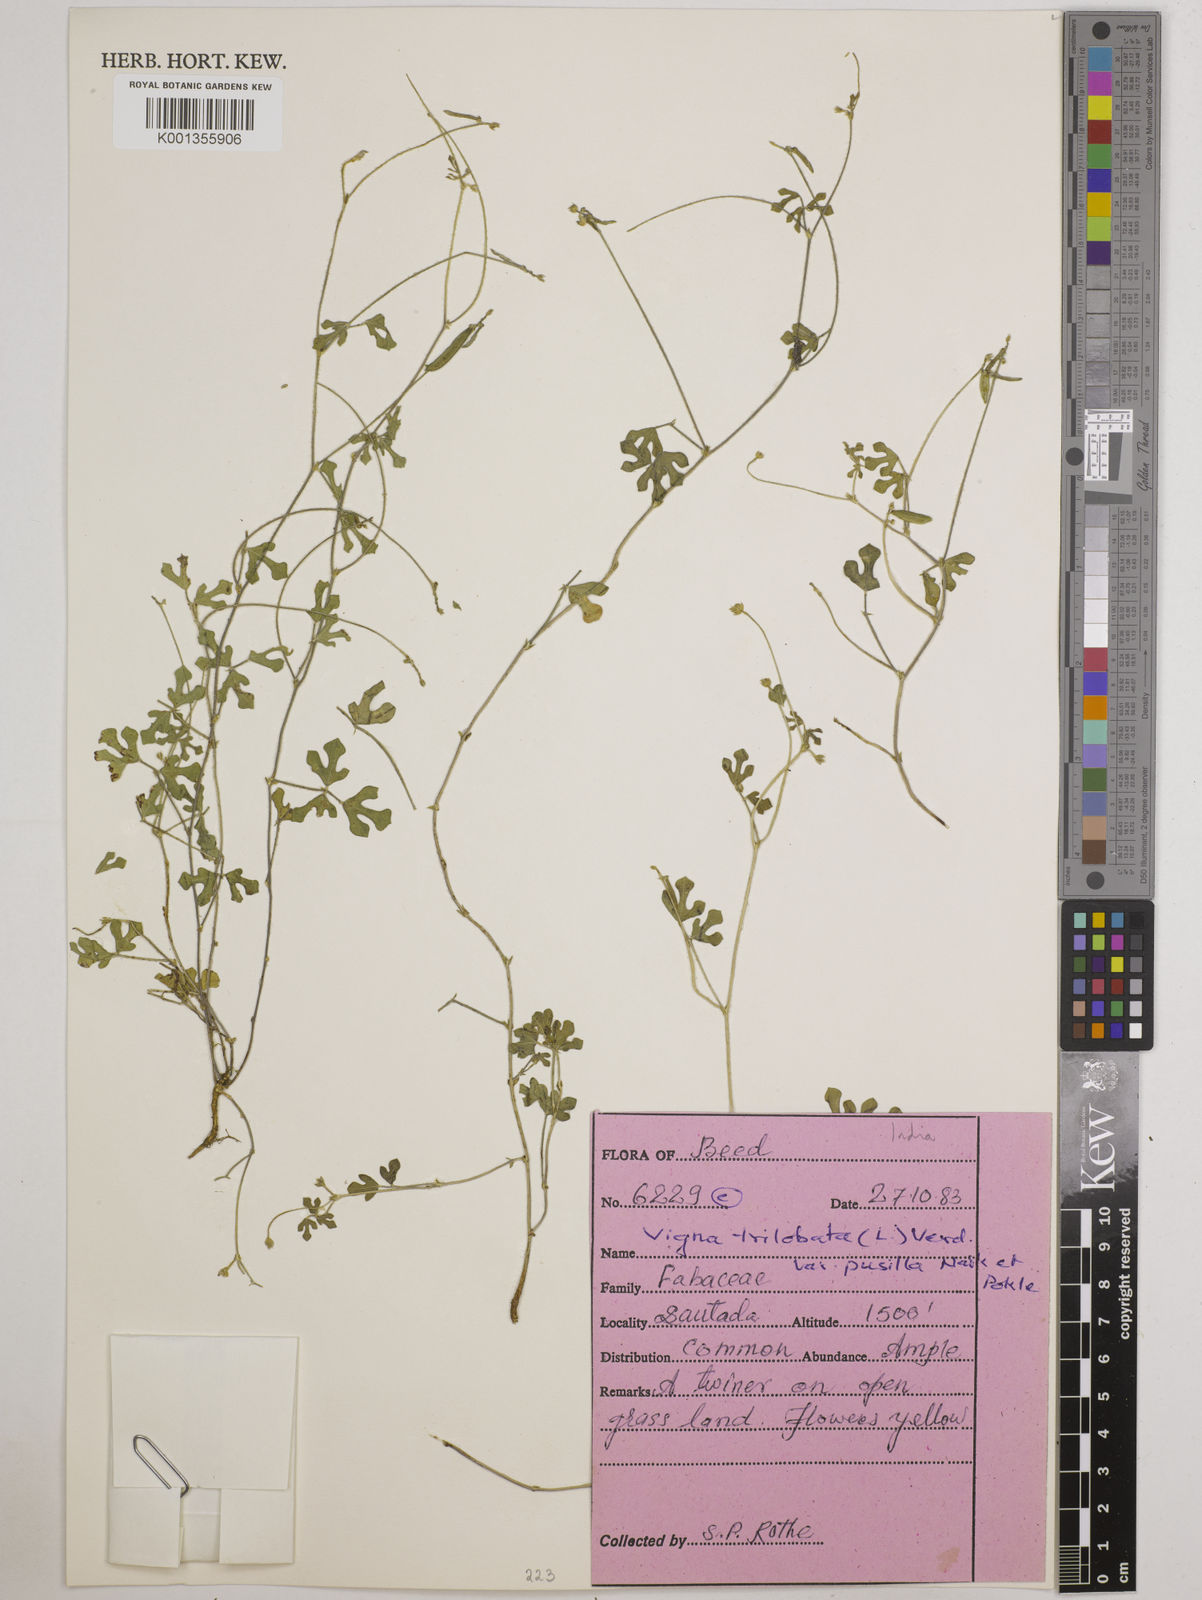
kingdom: Plantae
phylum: Tracheophyta
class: Magnoliopsida
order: Fabales
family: Fabaceae
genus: Vigna
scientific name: Vigna indica
